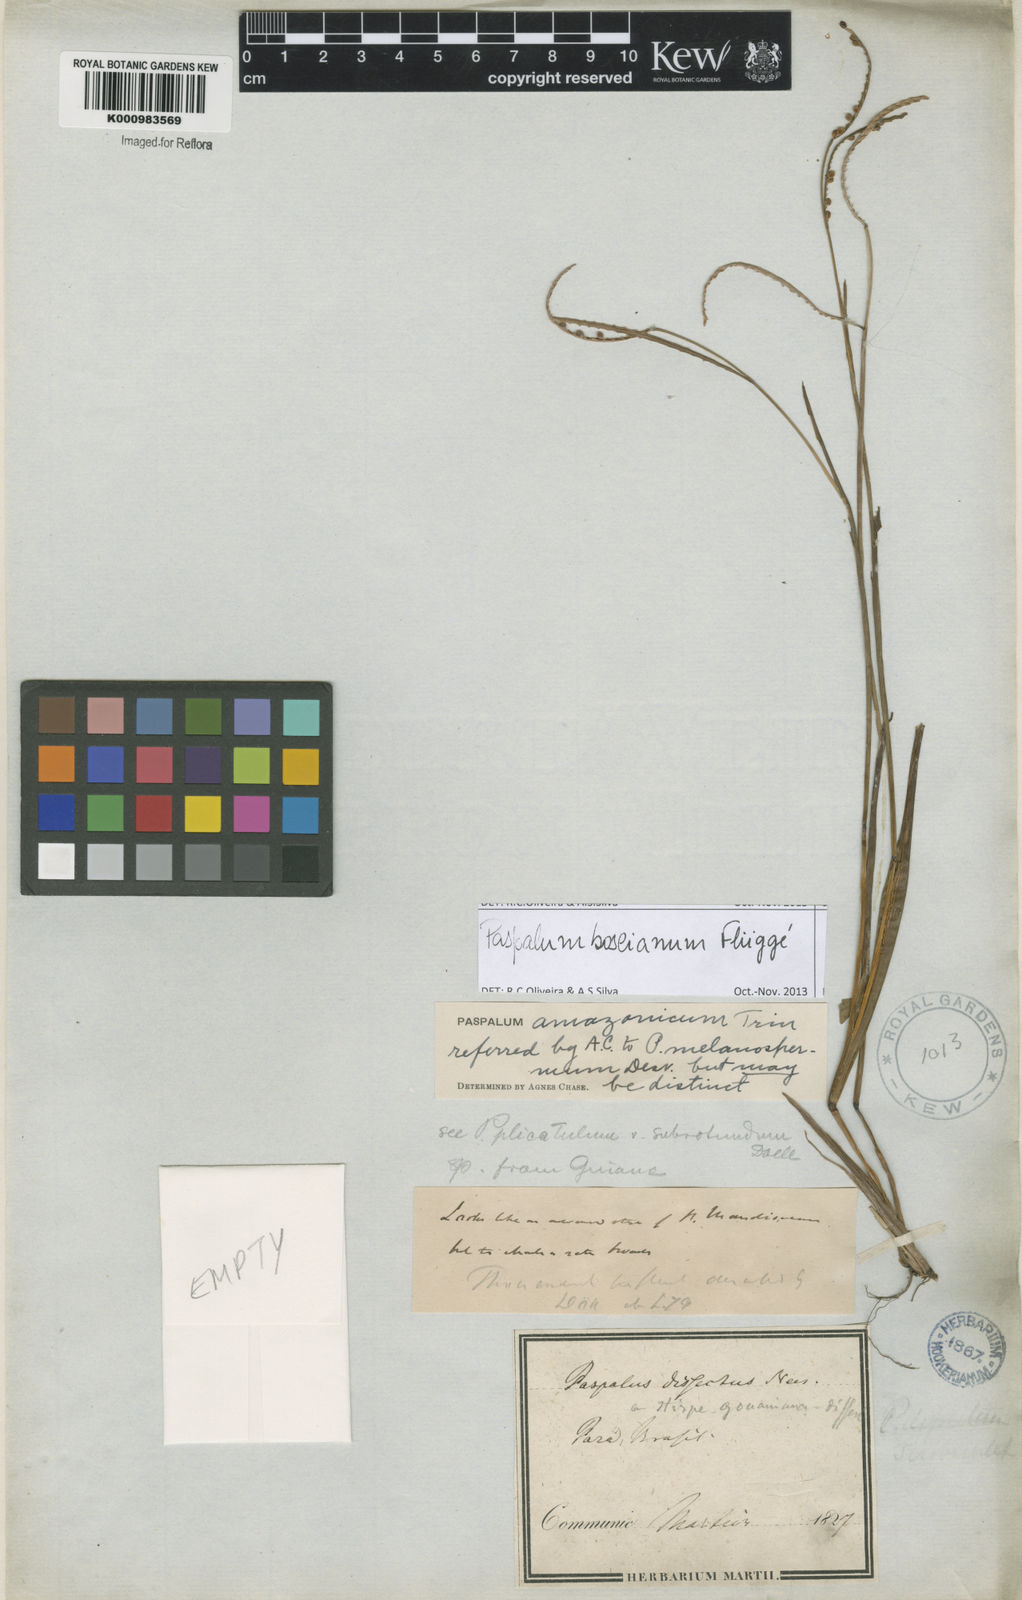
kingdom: Plantae
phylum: Tracheophyta
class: Liliopsida
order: Poales
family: Poaceae
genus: Paspalum
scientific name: Paspalum
